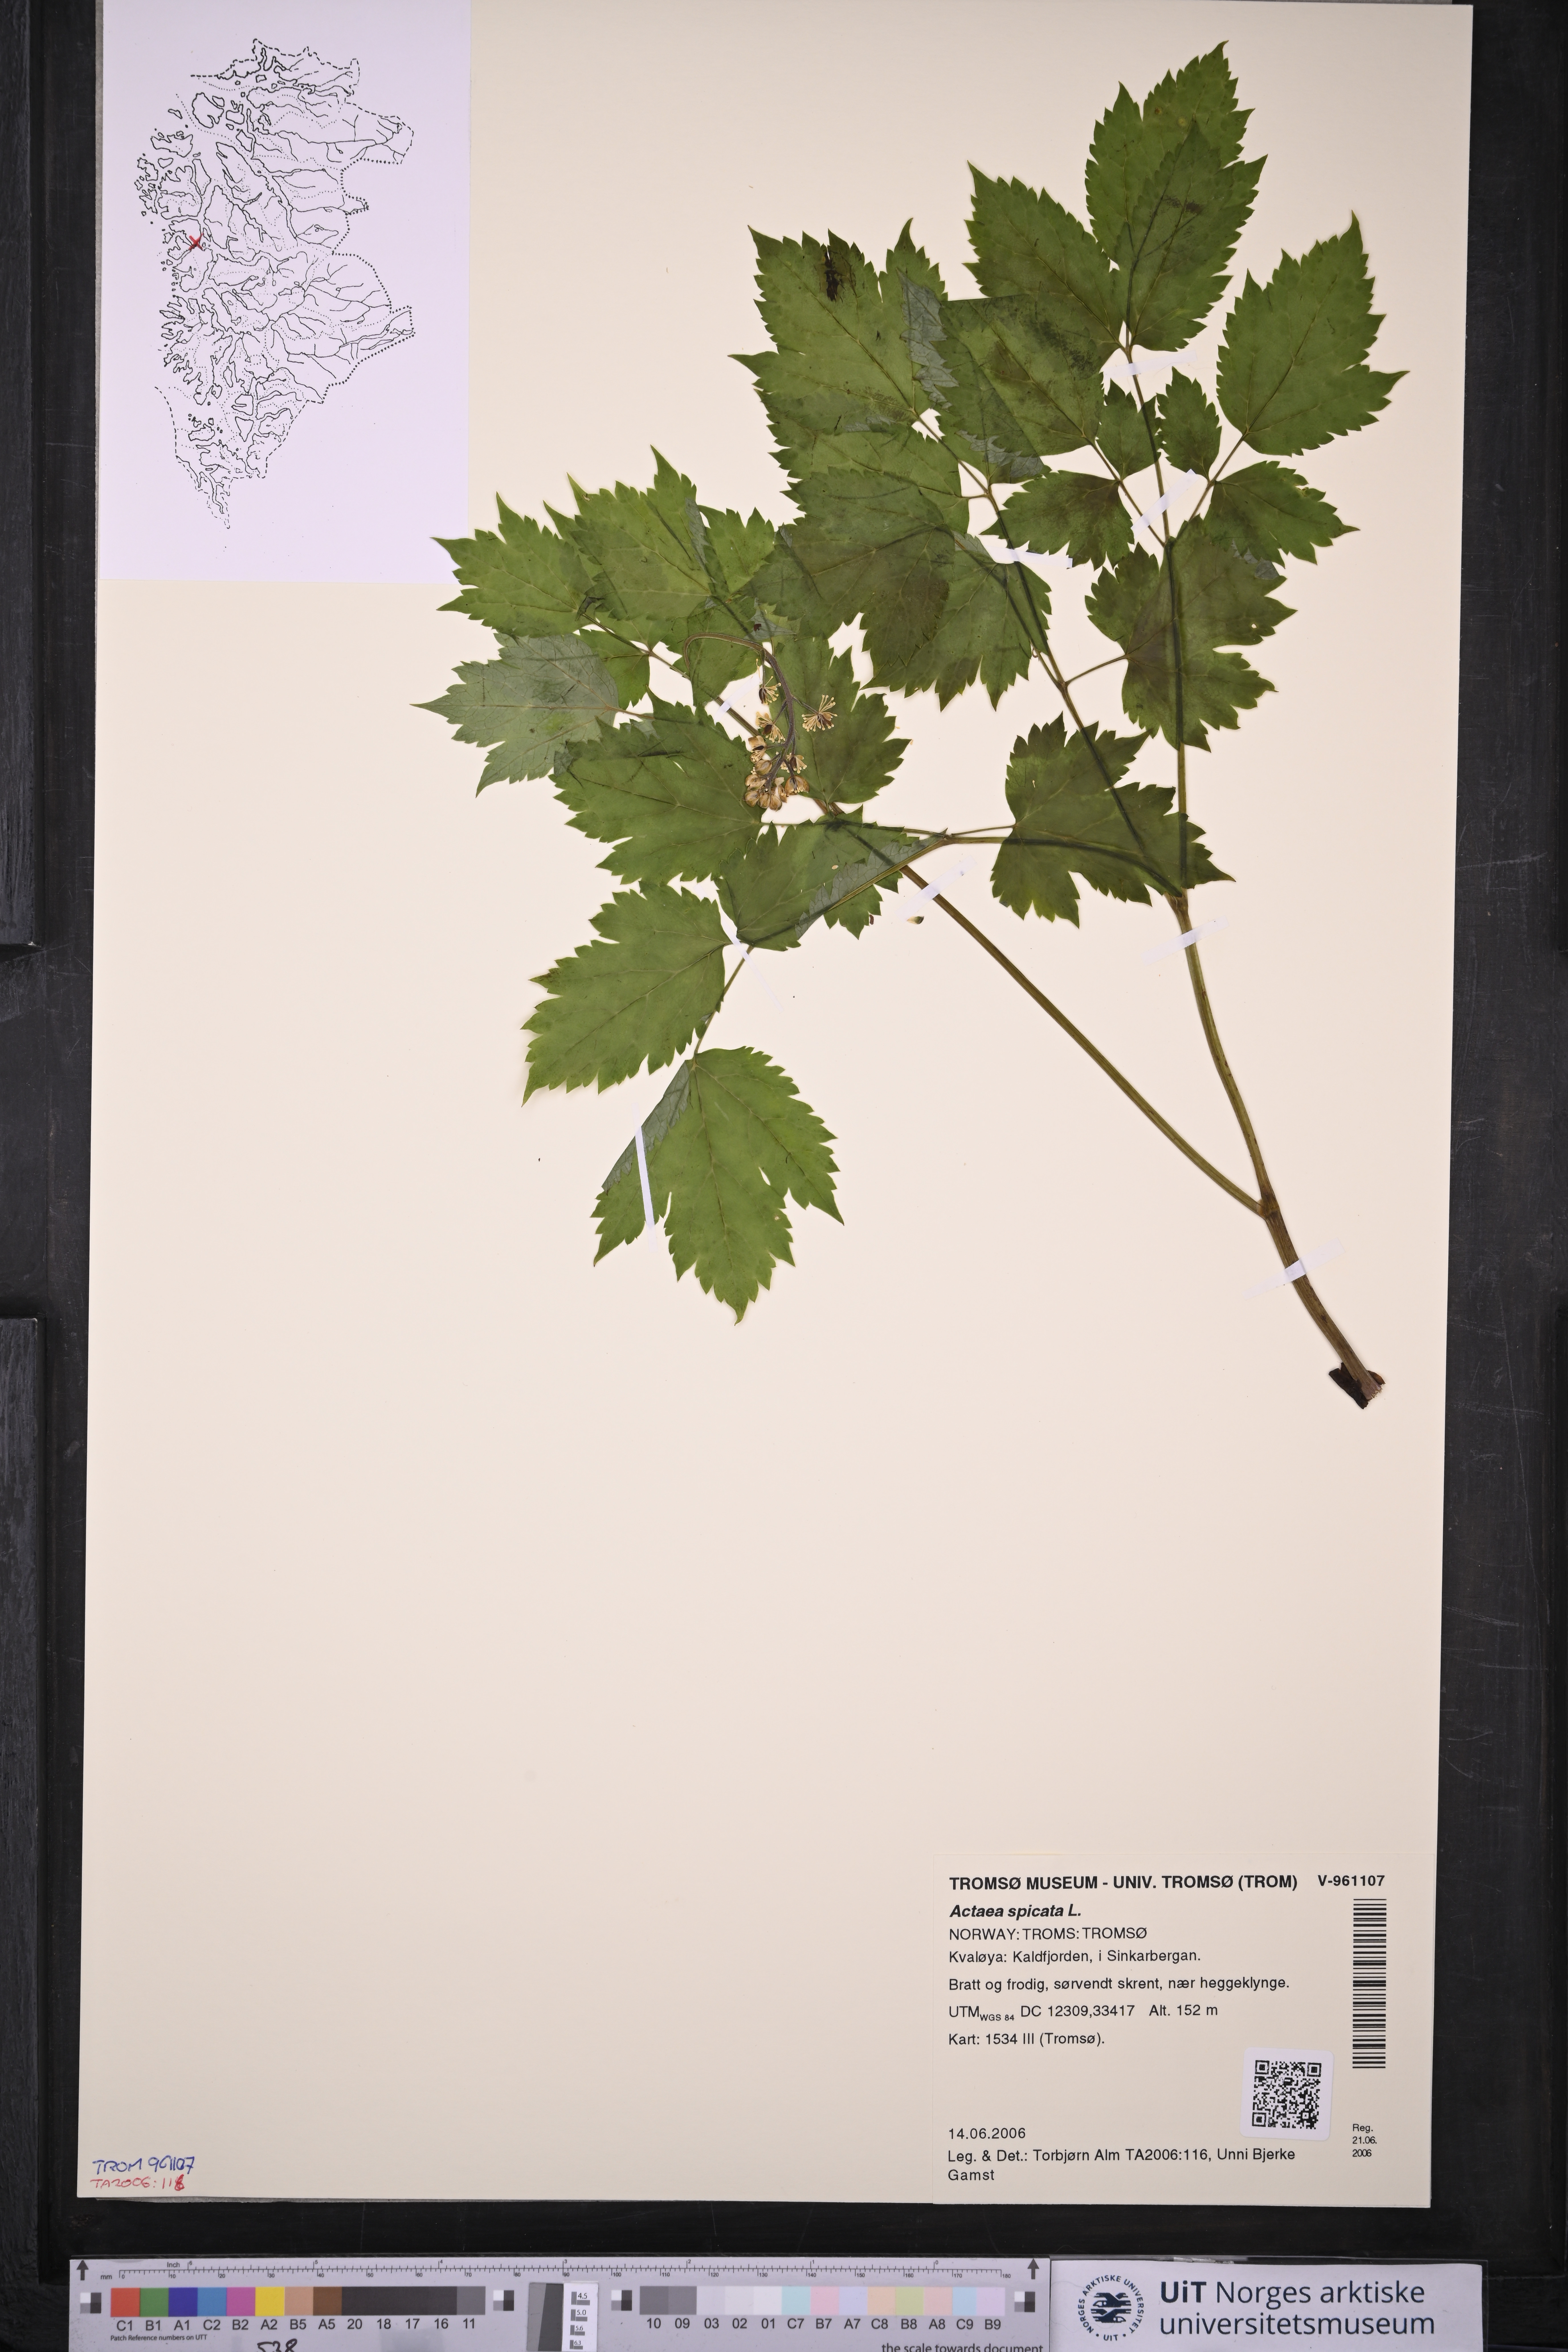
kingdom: Plantae
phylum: Tracheophyta
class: Magnoliopsida
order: Ranunculales
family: Ranunculaceae
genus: Actaea
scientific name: Actaea spicata
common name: Baneberry
